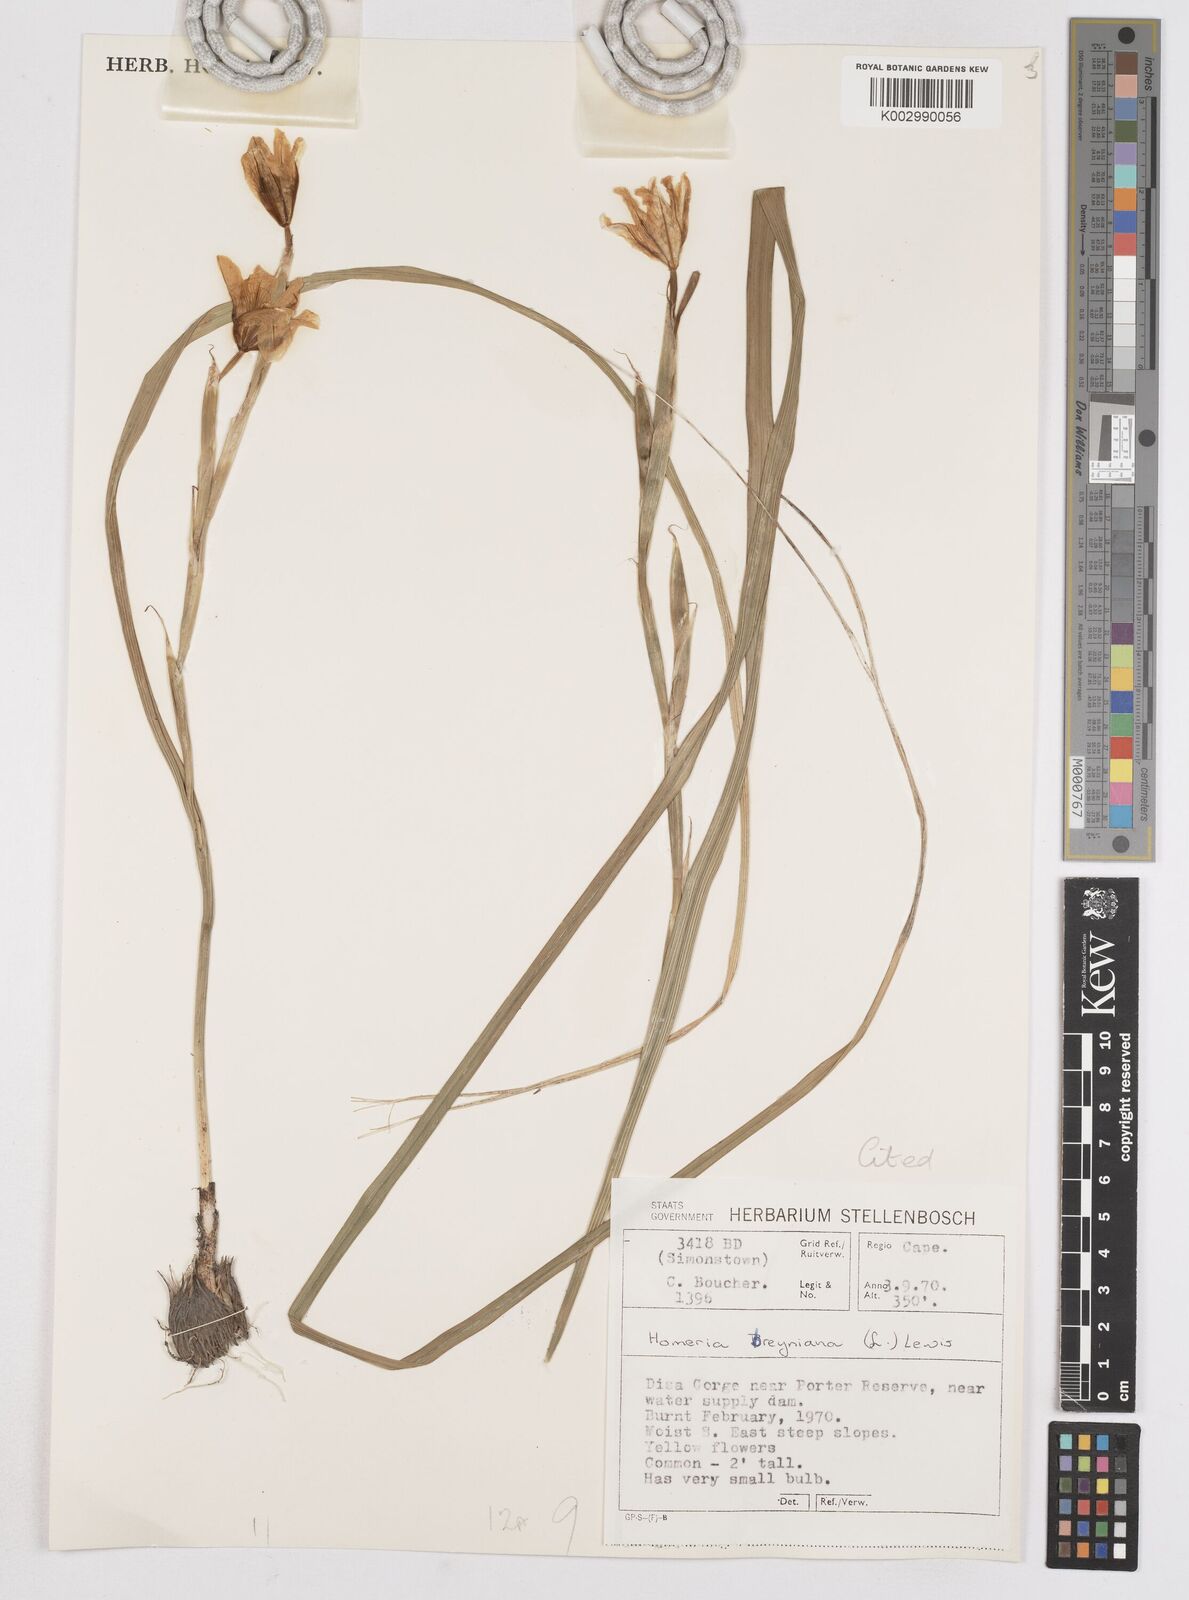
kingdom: Plantae
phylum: Tracheophyta
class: Liliopsida
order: Asparagales
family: Iridaceae
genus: Moraea
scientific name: Moraea ochroleuca
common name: Red tulp
